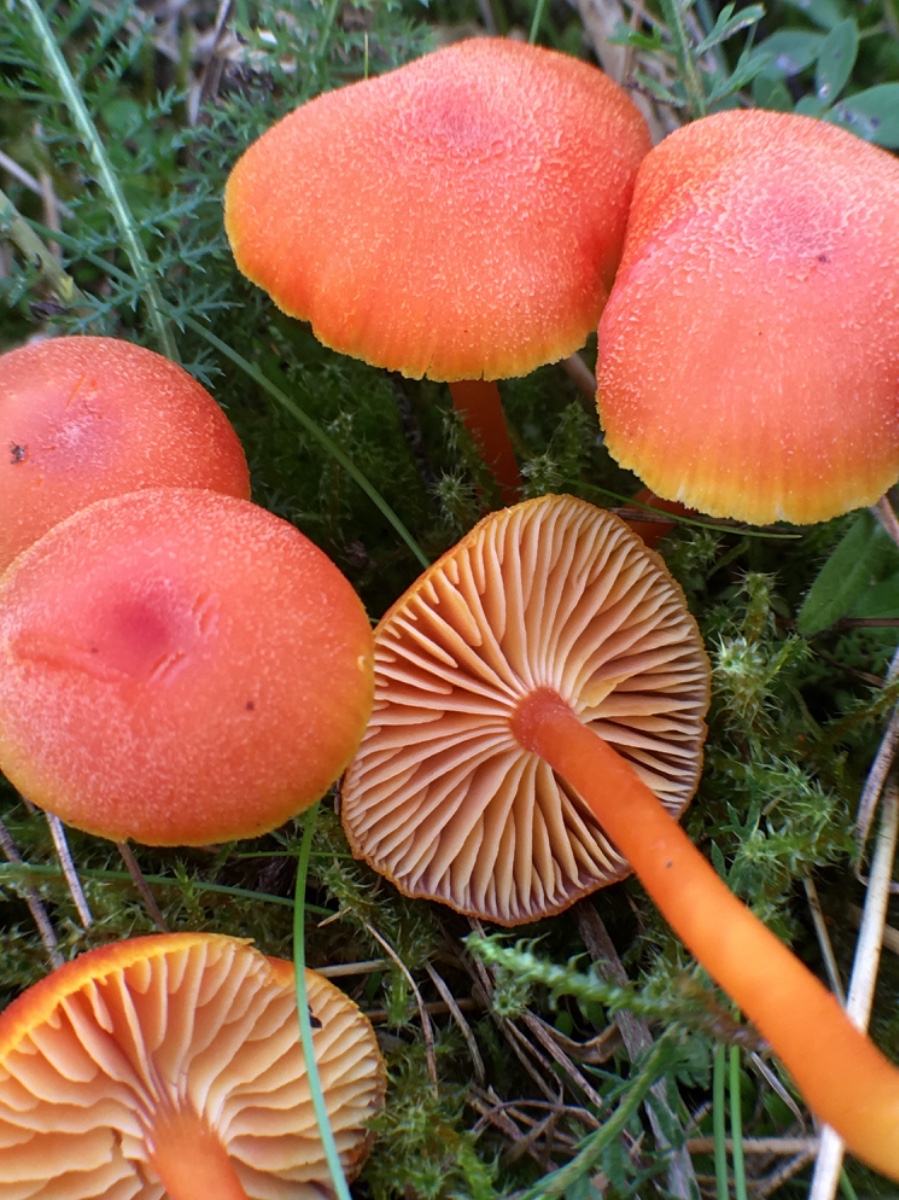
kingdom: Fungi
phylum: Basidiomycota
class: Agaricomycetes
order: Agaricales
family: Hygrophoraceae
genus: Hygrocybe
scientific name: Hygrocybe miniata
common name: mønje-vokshat
